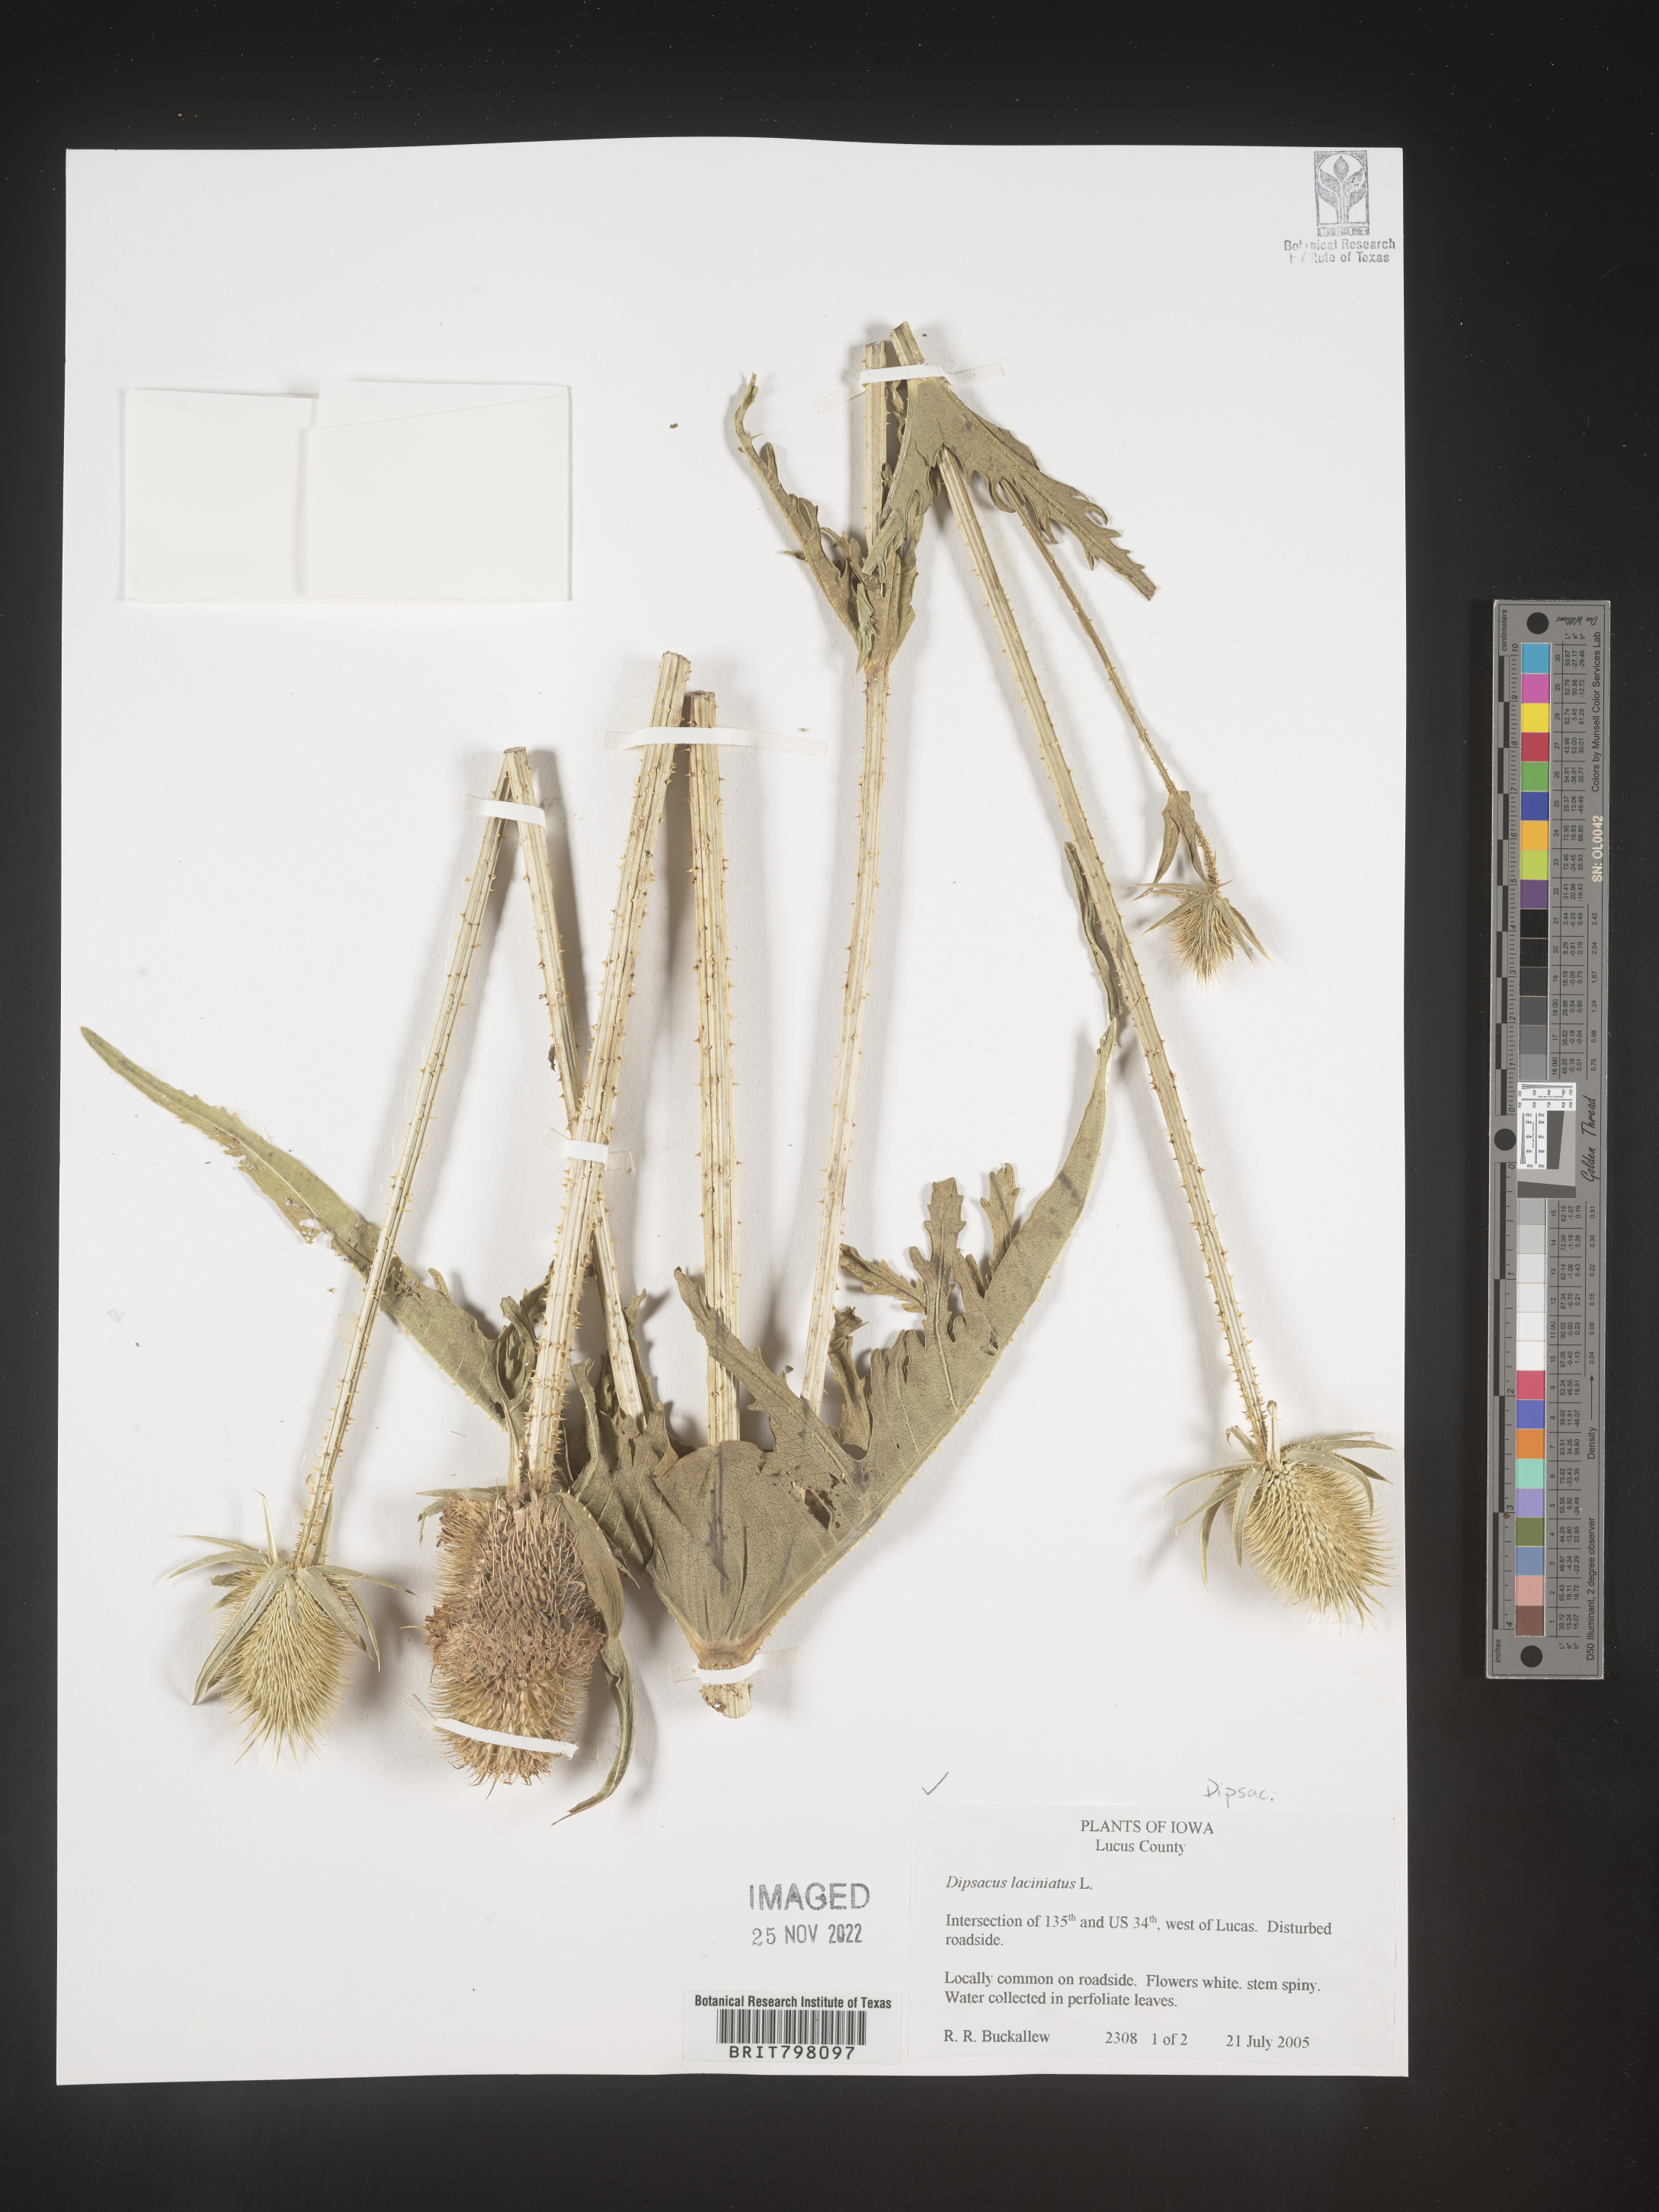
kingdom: Plantae
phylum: Tracheophyta
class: Magnoliopsida
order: Dipsacales
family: Caprifoliaceae
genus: Dipsacus
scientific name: Dipsacus
